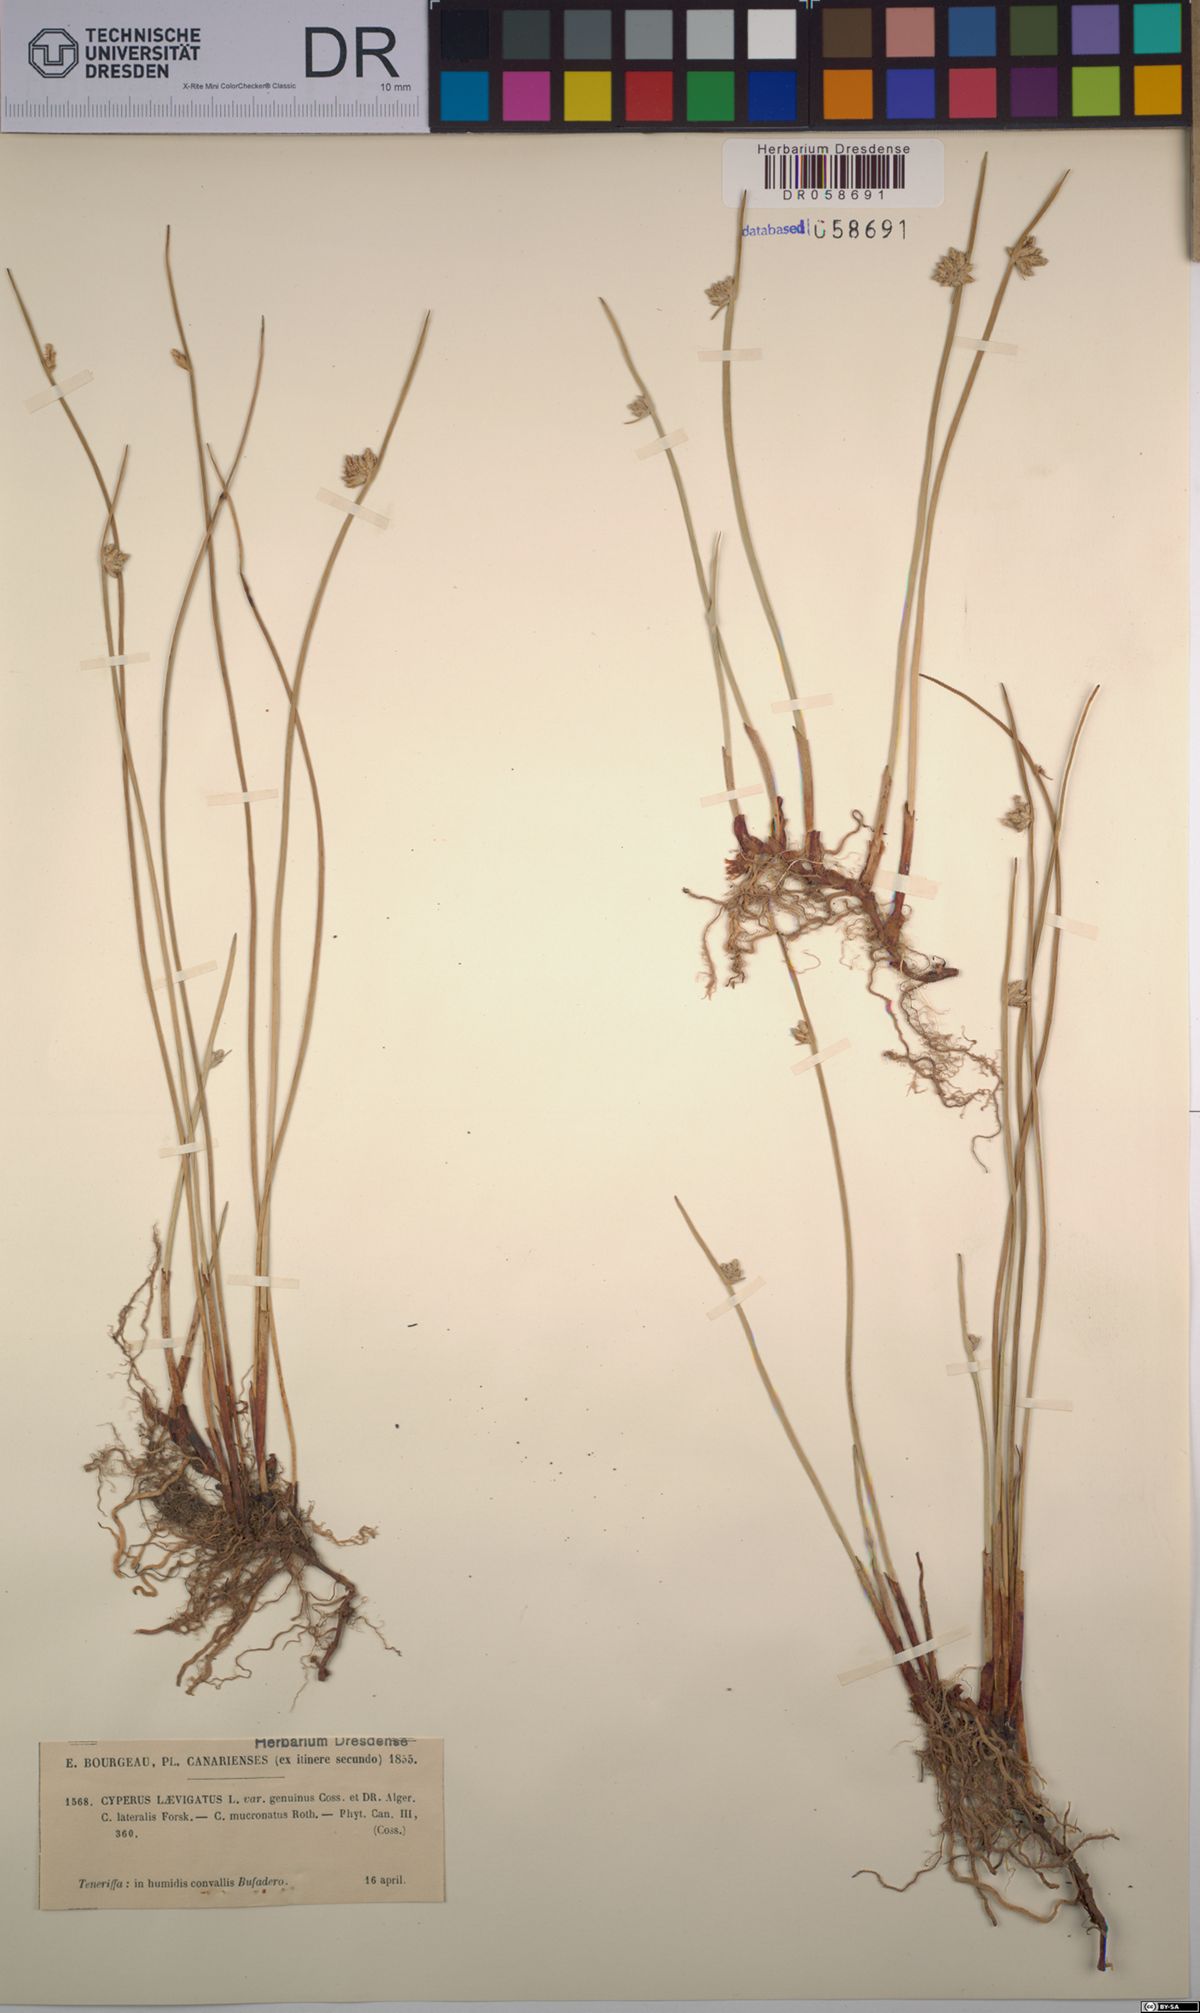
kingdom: Plantae
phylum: Tracheophyta
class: Liliopsida
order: Poales
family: Cyperaceae
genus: Cyperus
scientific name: Cyperus laevigatus
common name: Smooth flat sedge
